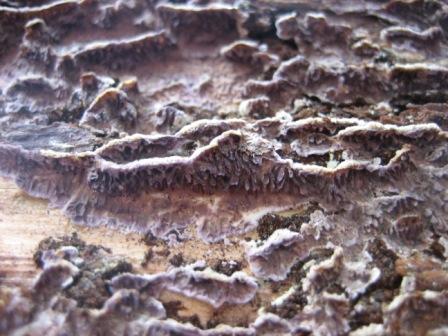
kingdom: Fungi
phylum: Basidiomycota
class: Agaricomycetes
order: Hymenochaetales
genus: Trichaptum
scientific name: Trichaptum abietinum
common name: almindelig violporesvamp
